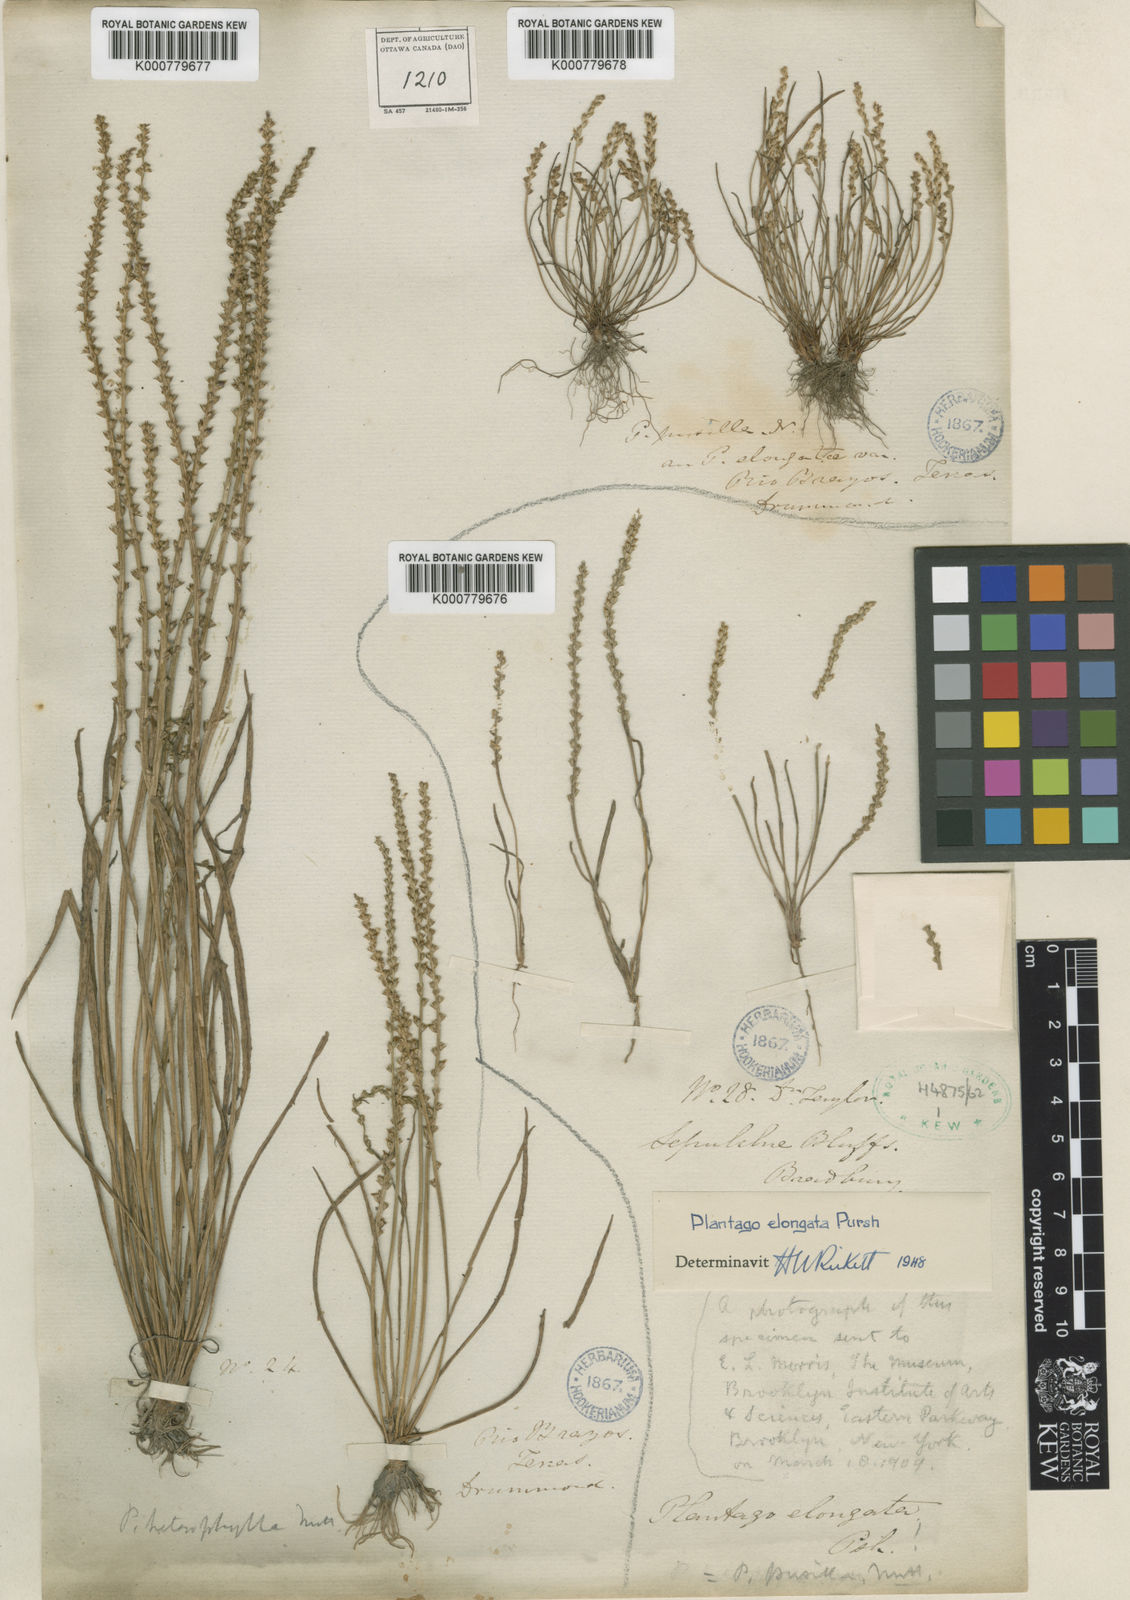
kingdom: Plantae
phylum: Tracheophyta
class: Magnoliopsida
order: Lamiales
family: Plantaginaceae
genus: Plantago
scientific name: Plantago pusilla
